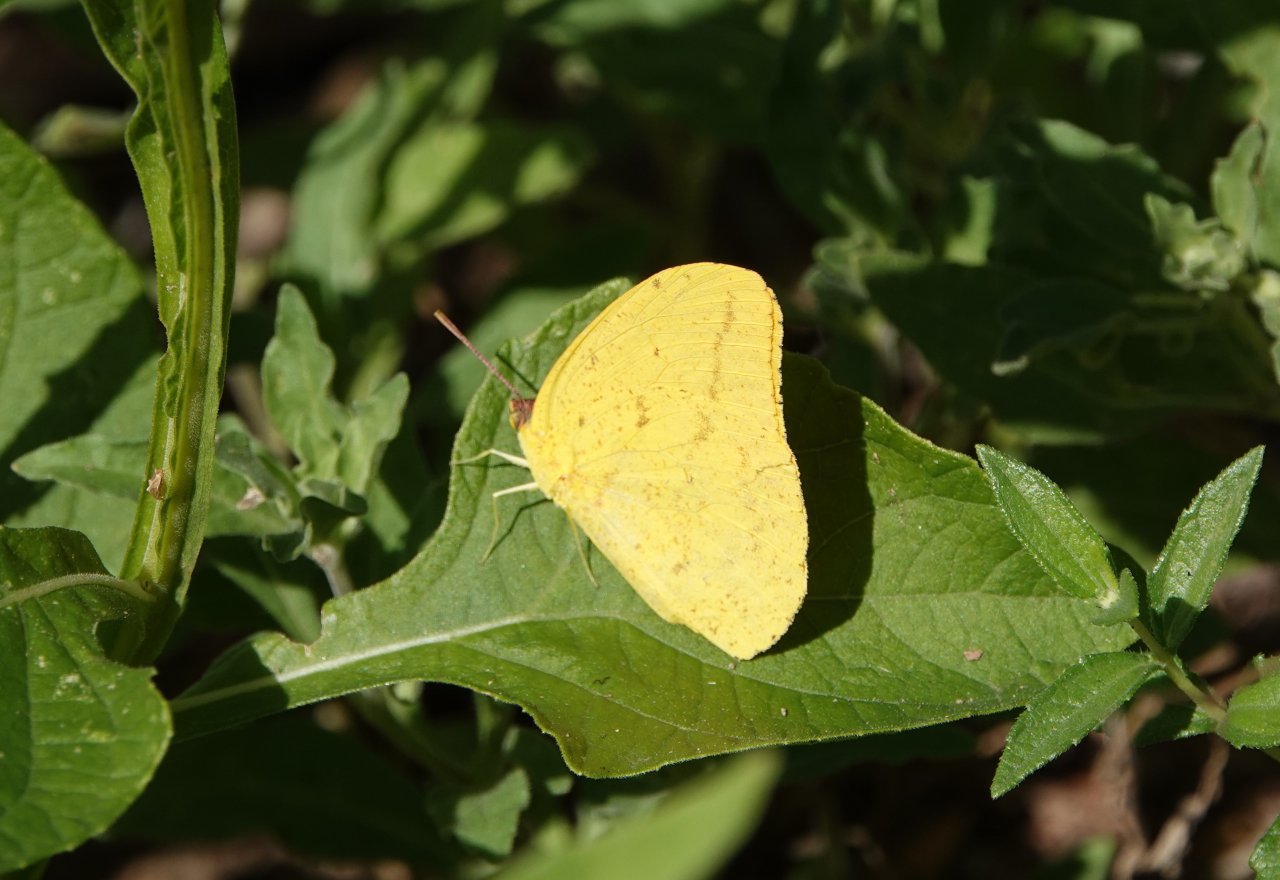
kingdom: Animalia
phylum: Arthropoda
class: Insecta
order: Lepidoptera
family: Pieridae
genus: Phoebis
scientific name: Phoebis agarithe
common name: Large Orange Sulphur
